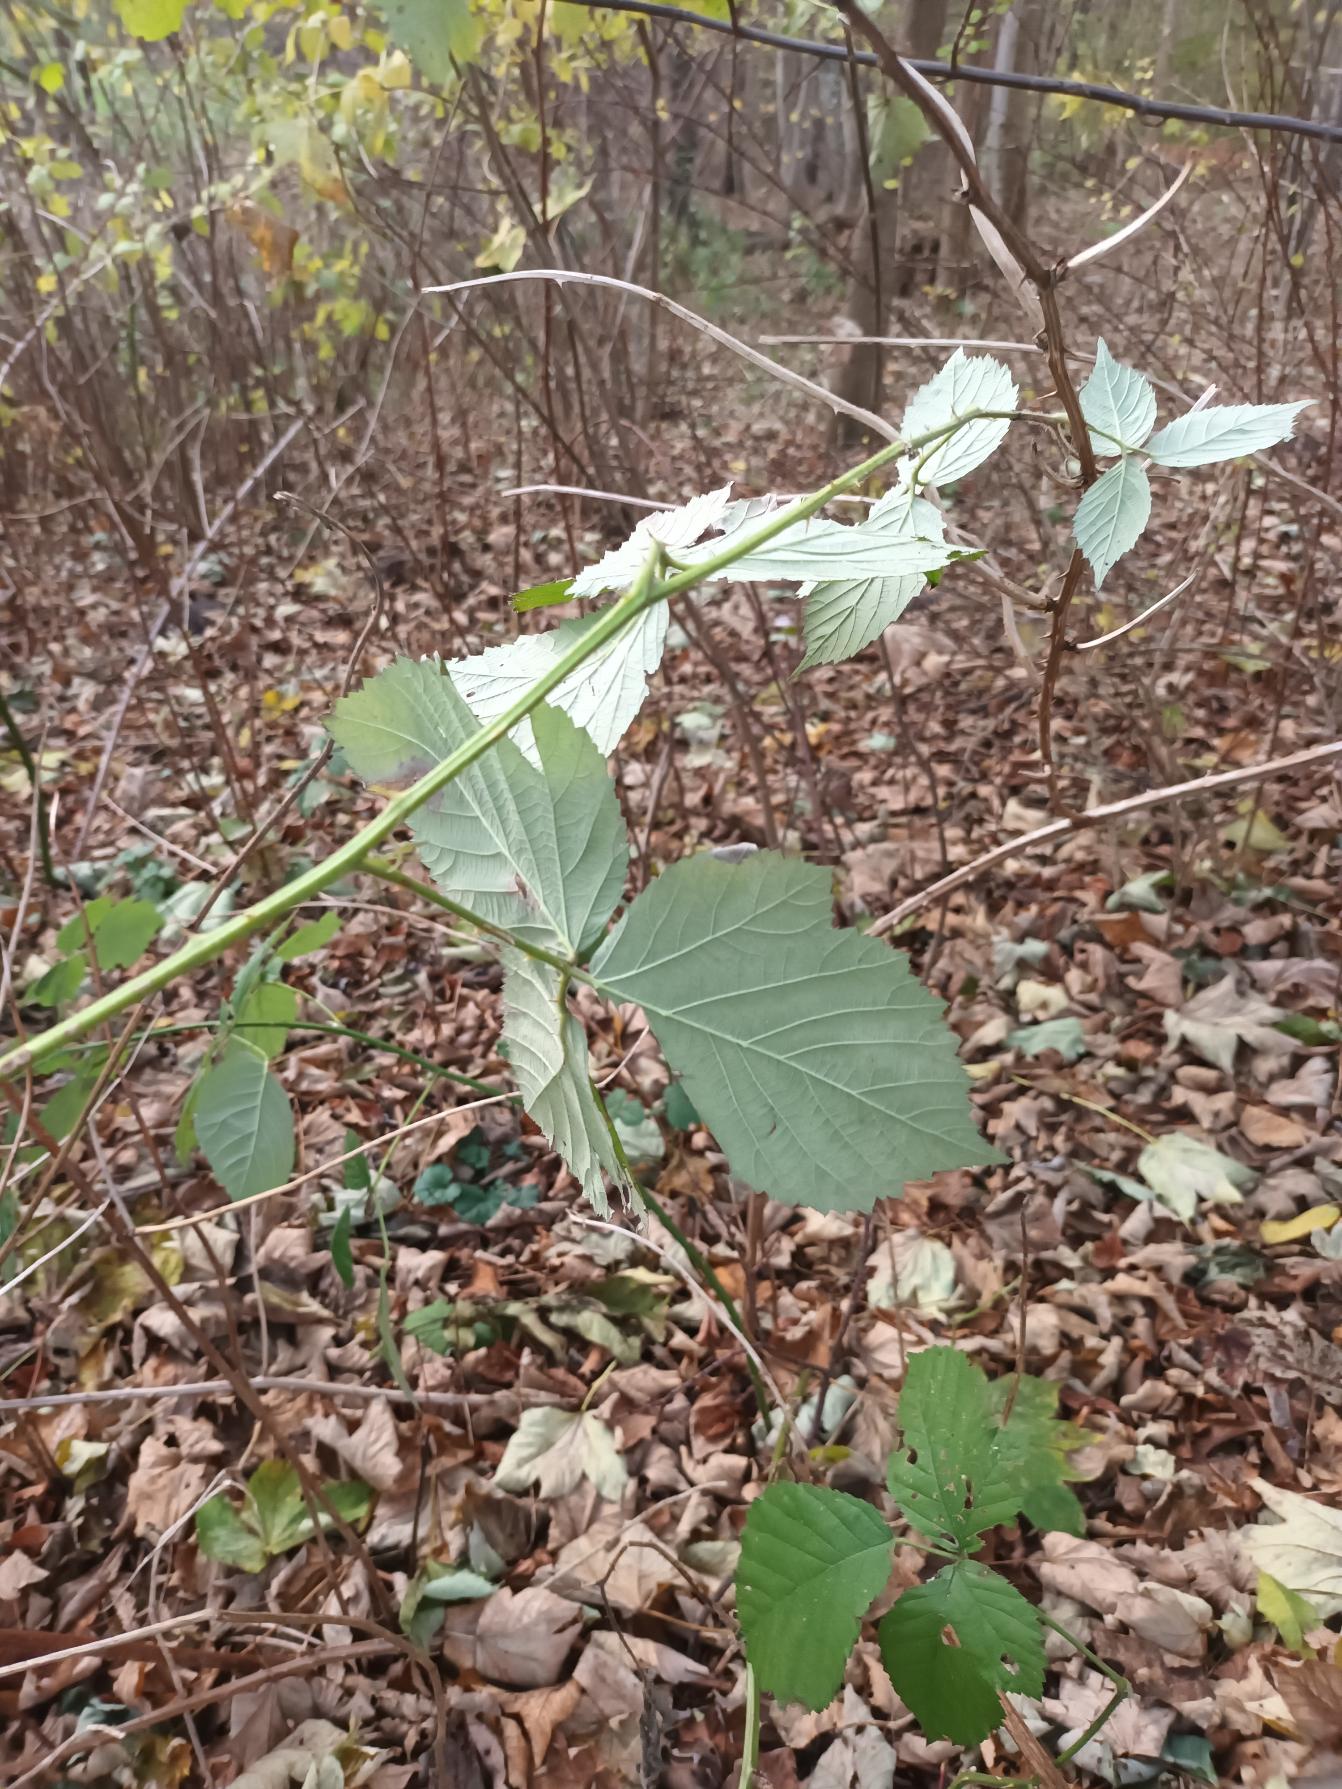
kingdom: Plantae
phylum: Tracheophyta
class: Magnoliopsida
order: Rosales
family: Rosaceae
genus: Rubus
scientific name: Rubus armeniacus
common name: Armensk brombær
